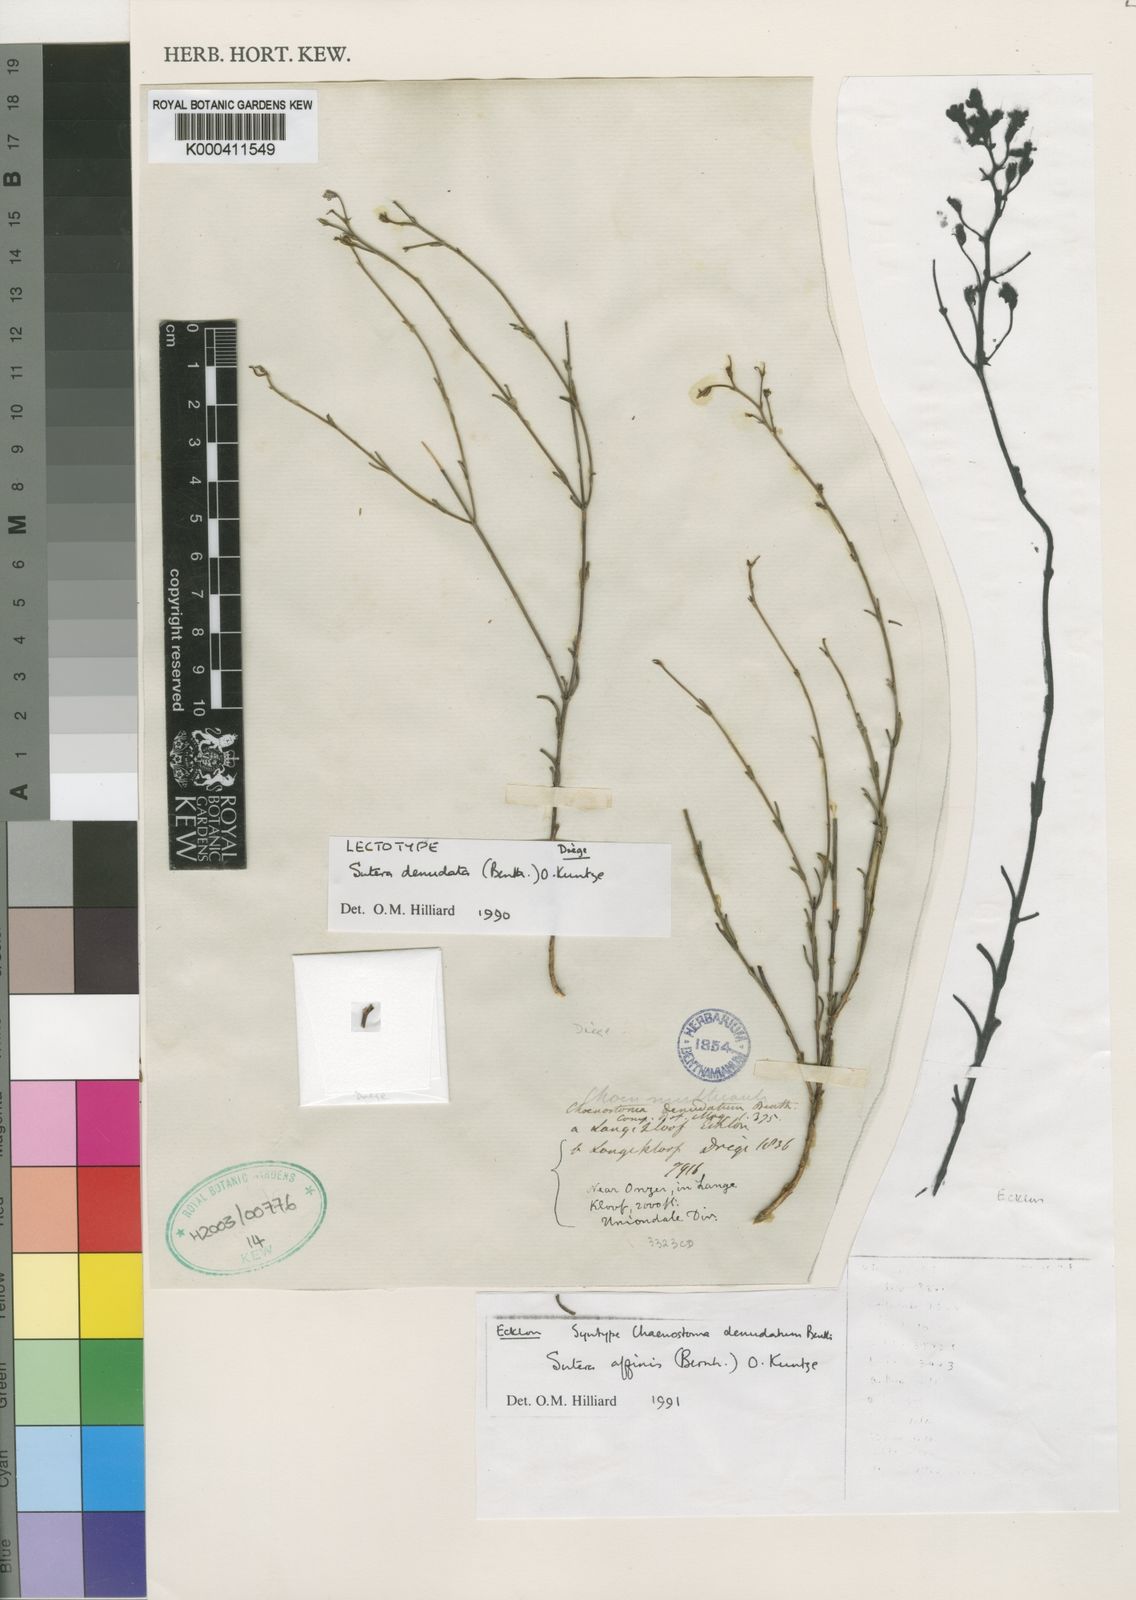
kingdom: Plantae
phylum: Tracheophyta
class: Magnoliopsida
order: Lamiales
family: Scrophulariaceae
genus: Chaenostoma
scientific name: Chaenostoma denudatum
